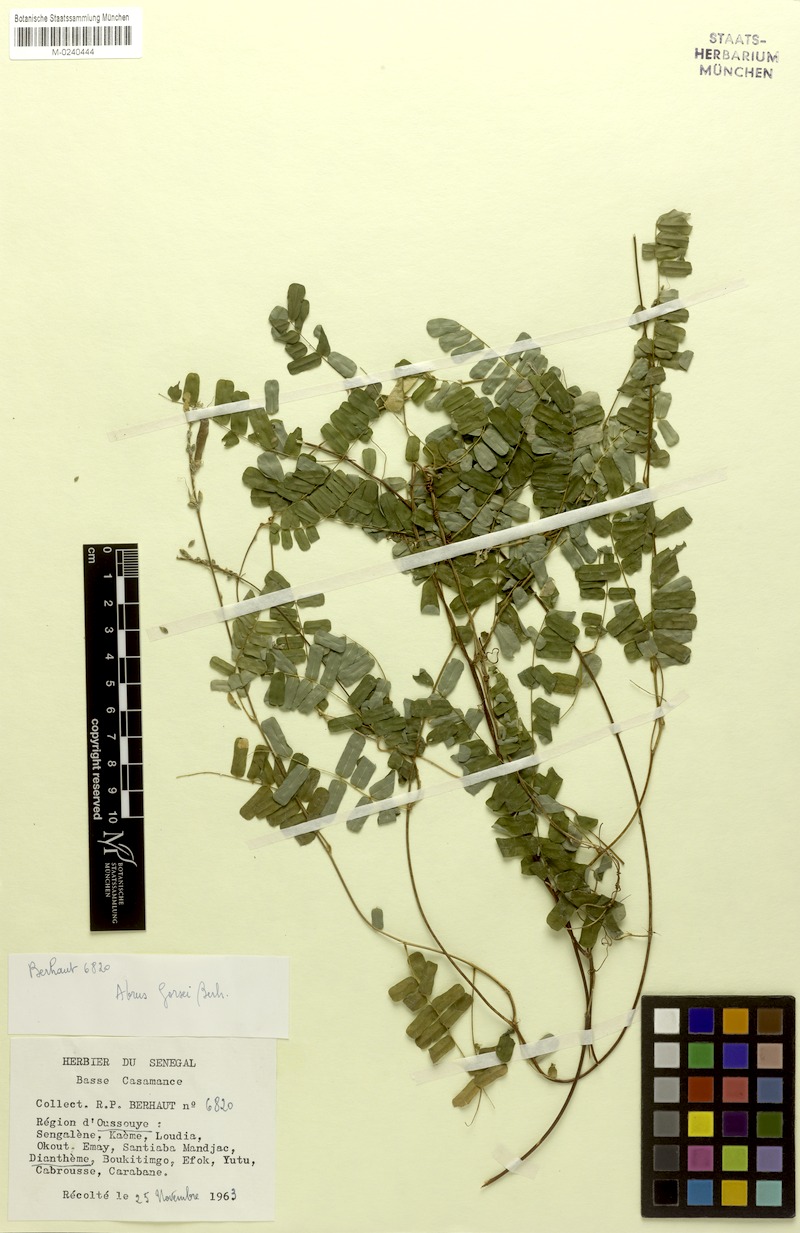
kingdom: Plantae
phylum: Tracheophyta
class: Magnoliopsida
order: Fabales
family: Fabaceae
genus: Abrus
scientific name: Abrus melanospermus
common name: Licorice-root
